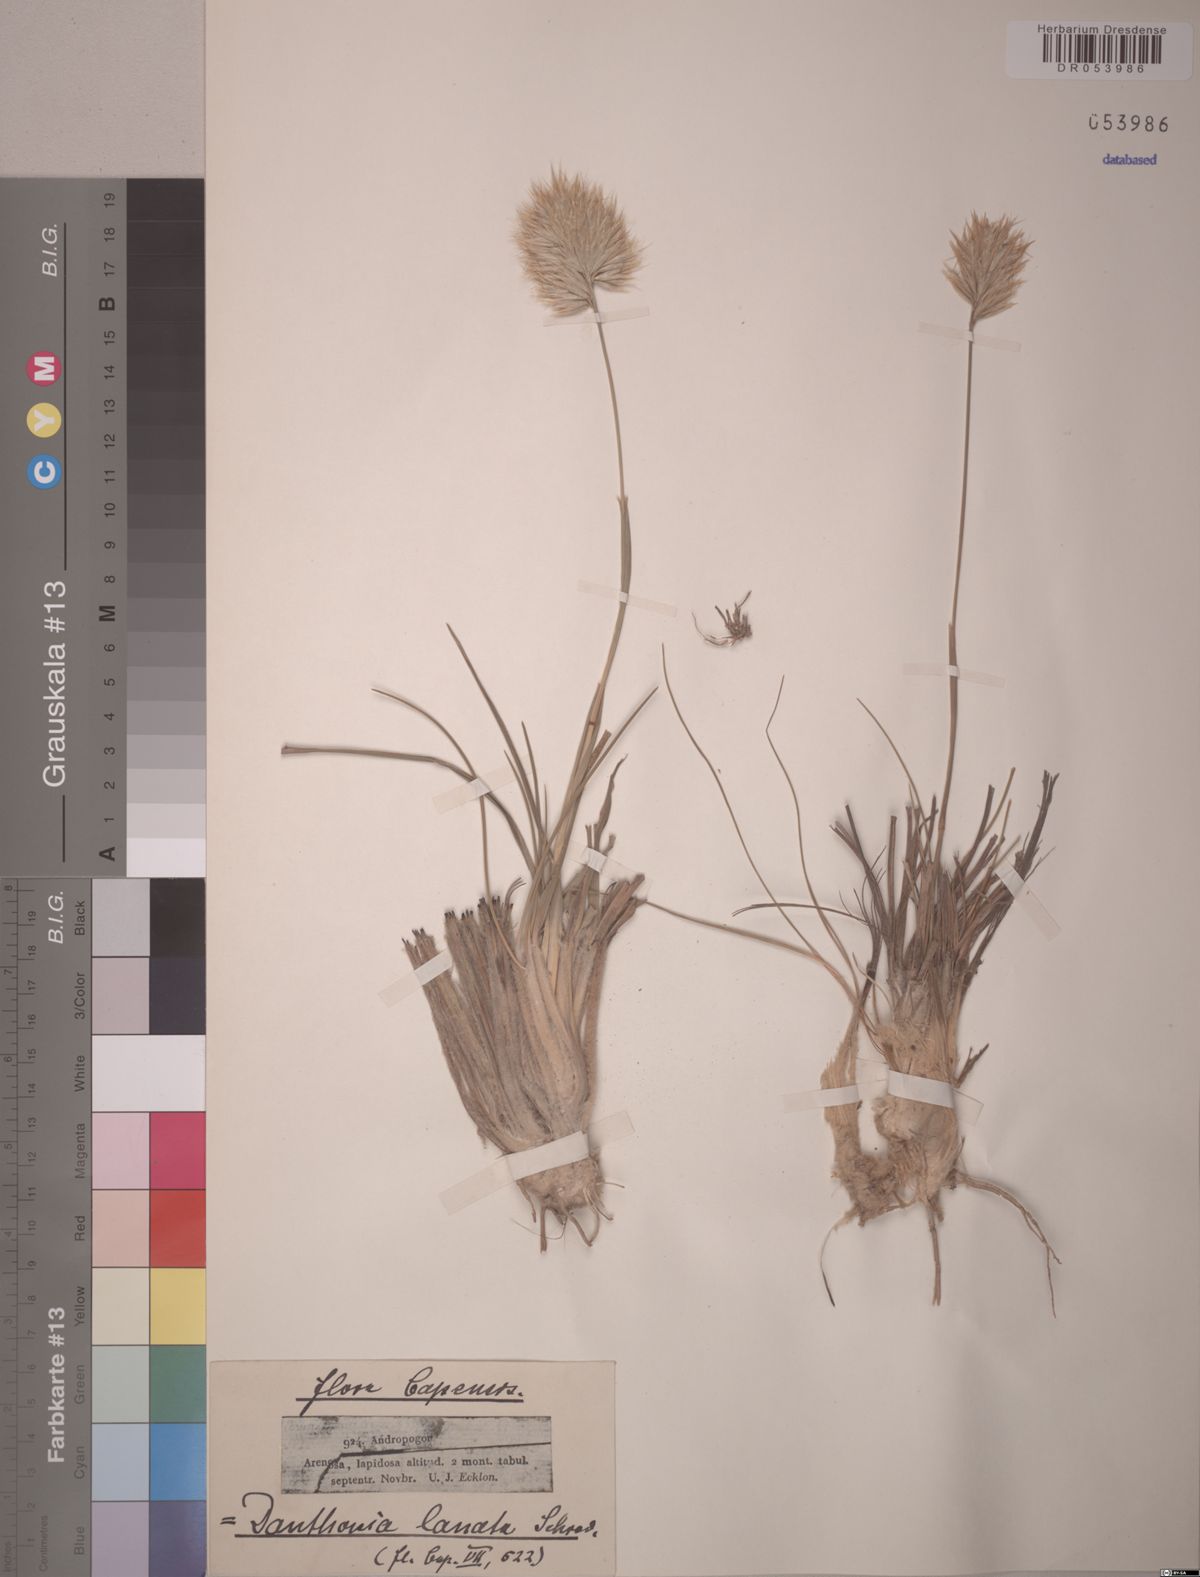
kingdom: Plantae
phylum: Tracheophyta
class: Liliopsida
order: Poales
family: Poaceae
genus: Geochloa
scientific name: Geochloa rufa
